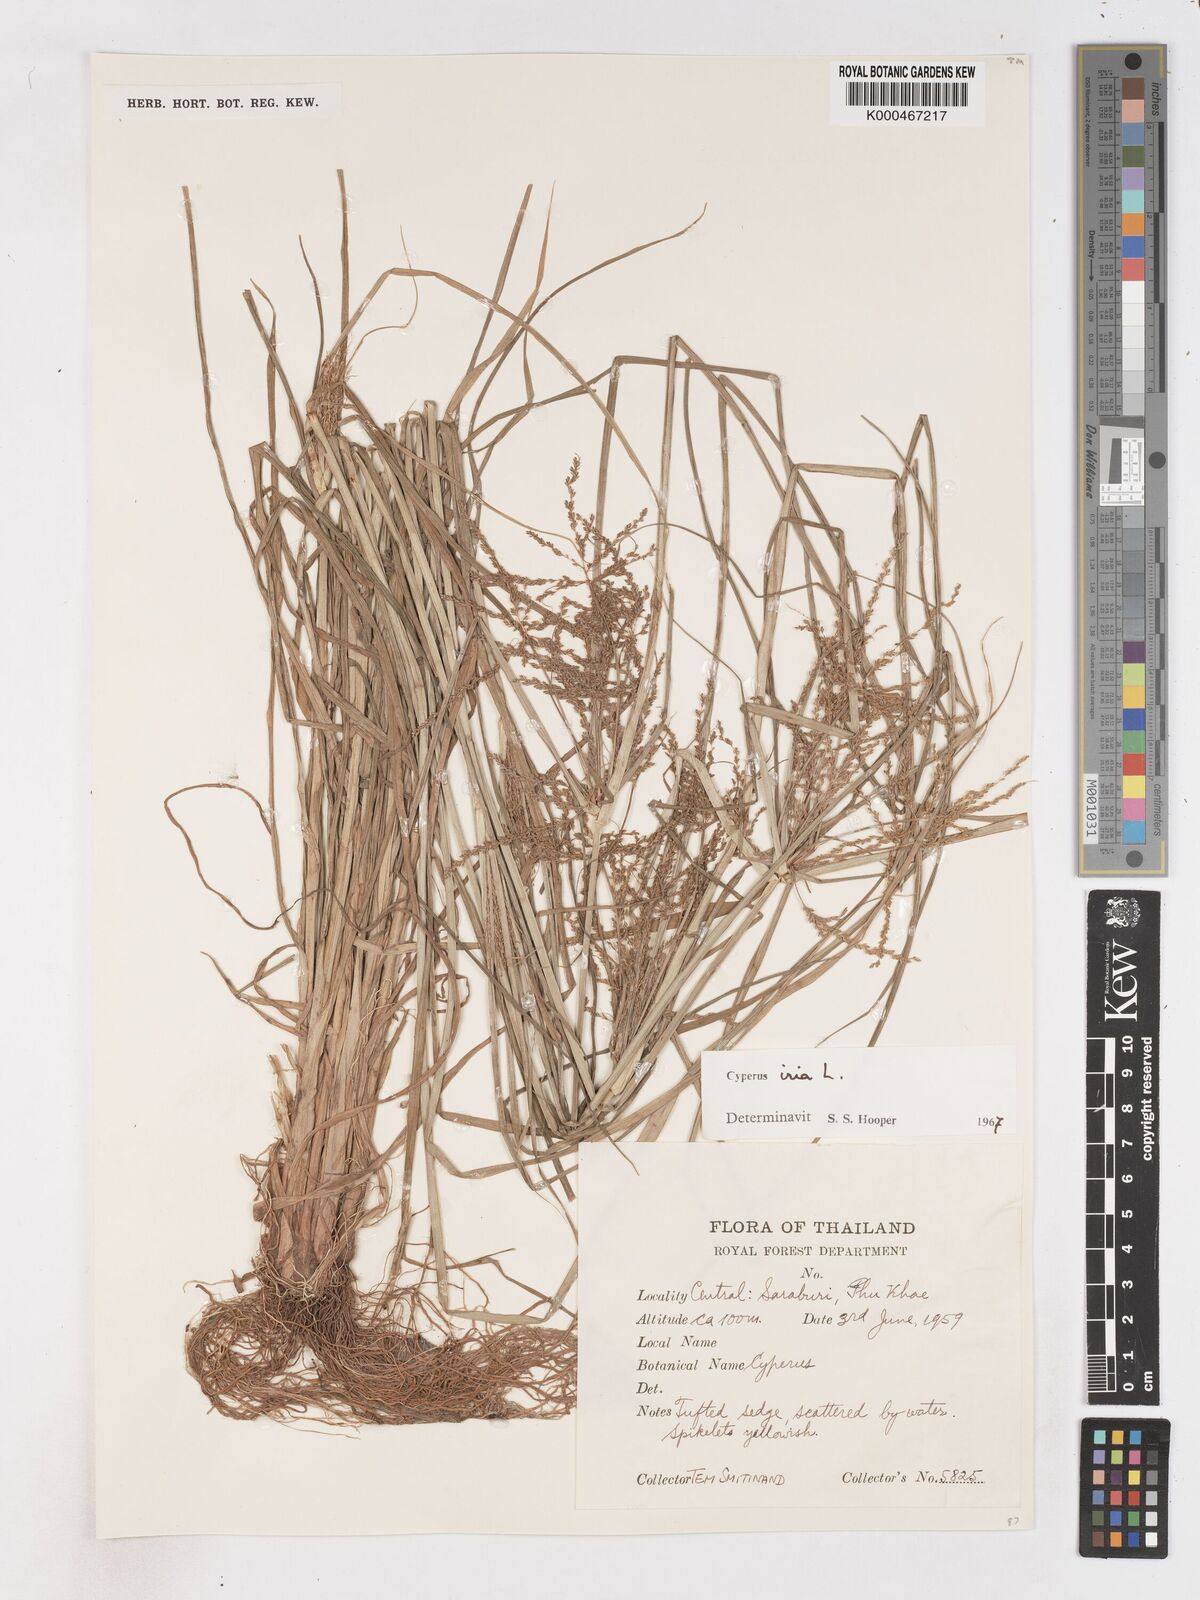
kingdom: Plantae
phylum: Tracheophyta
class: Liliopsida
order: Poales
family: Cyperaceae
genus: Cyperus
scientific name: Cyperus iria
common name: Ricefield flatsedge
